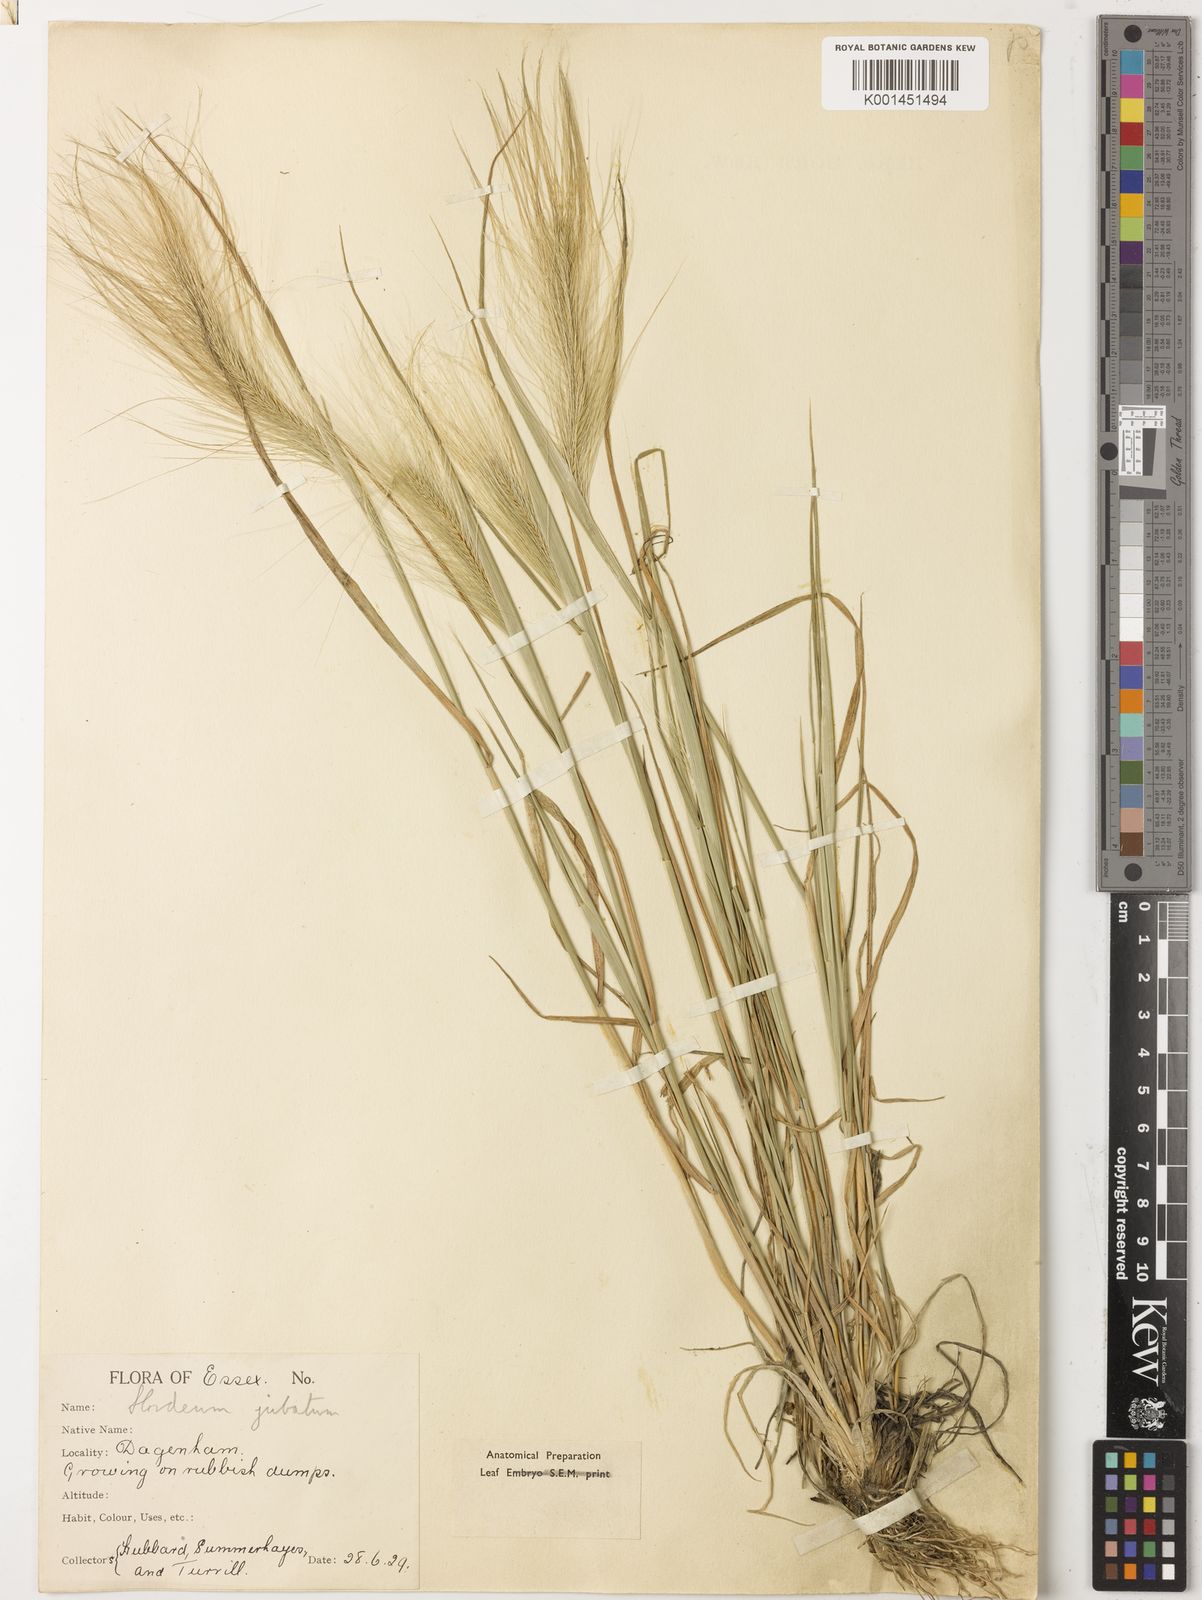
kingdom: Plantae
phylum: Tracheophyta
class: Liliopsida
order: Poales
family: Poaceae
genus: Hordeum
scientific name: Hordeum jubatum
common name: Foxtail barley
